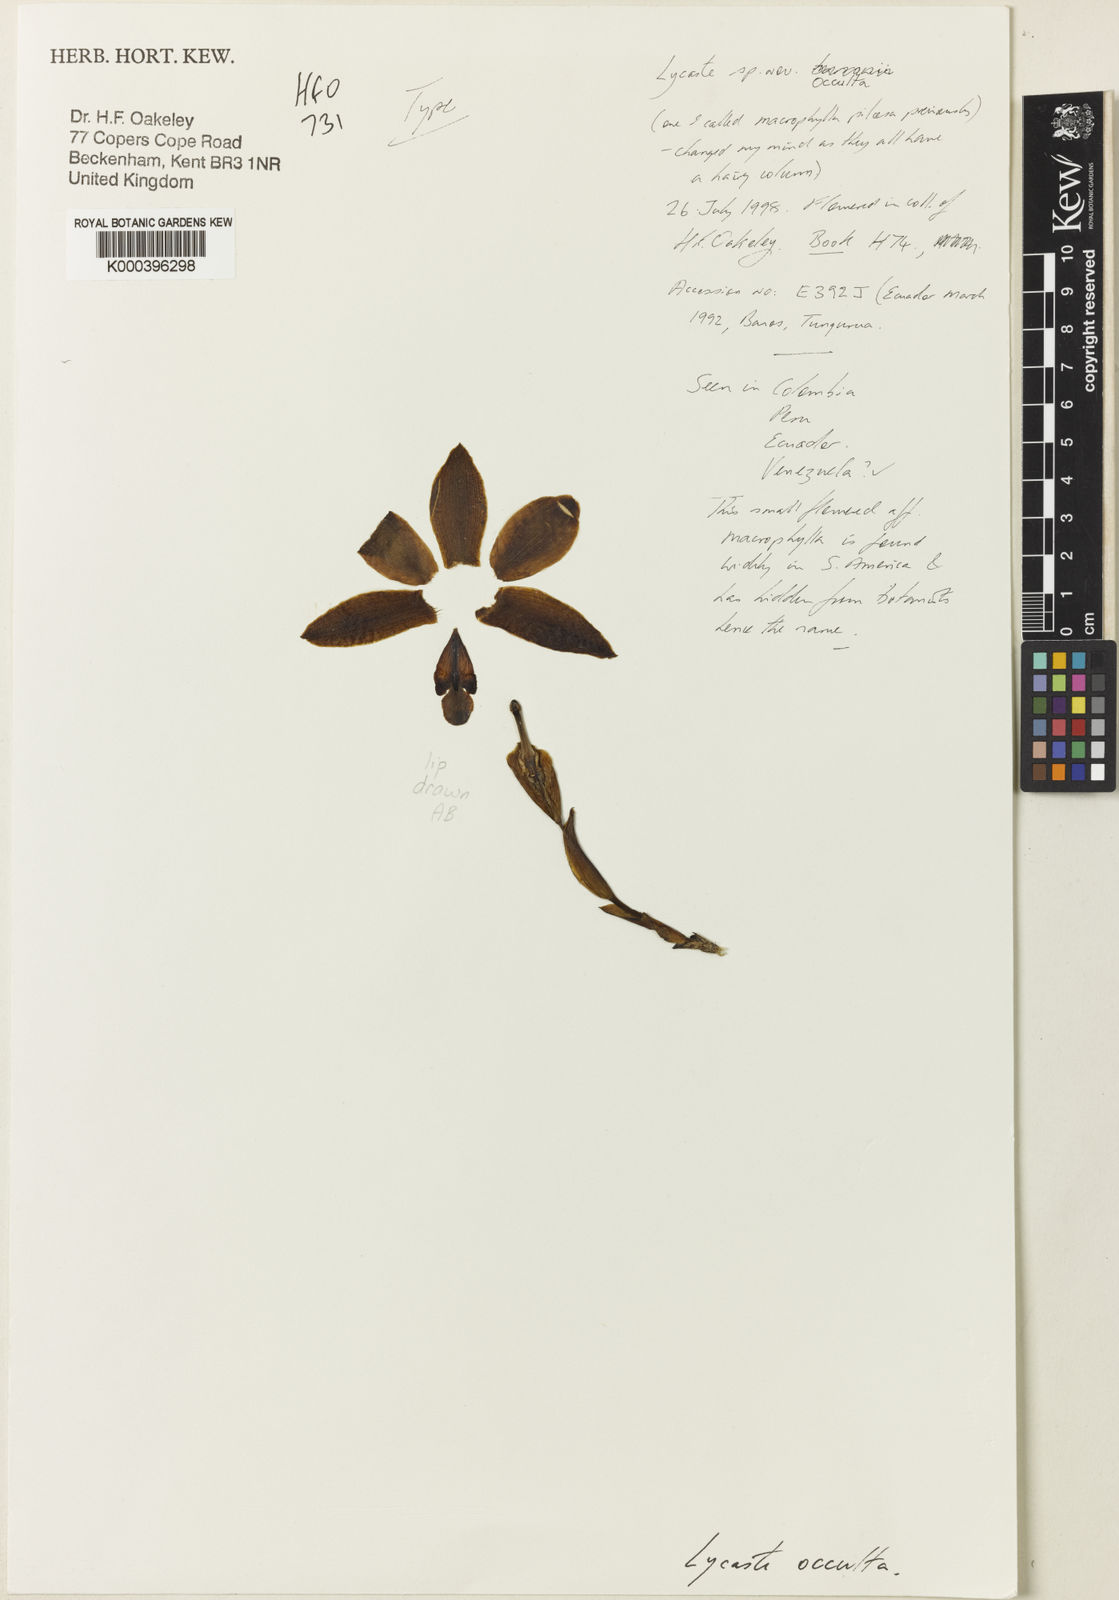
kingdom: Plantae
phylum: Tracheophyta
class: Liliopsida
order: Asparagales
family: Orchidaceae
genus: Lycaste
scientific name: Lycaste occulta
